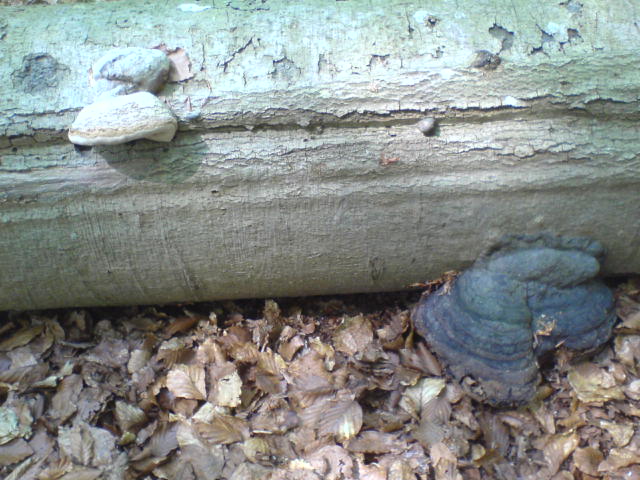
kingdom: Fungi
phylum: Basidiomycota
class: Agaricomycetes
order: Polyporales
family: Polyporaceae
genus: Fomes
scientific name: Fomes fomentarius
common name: tøndersvamp
